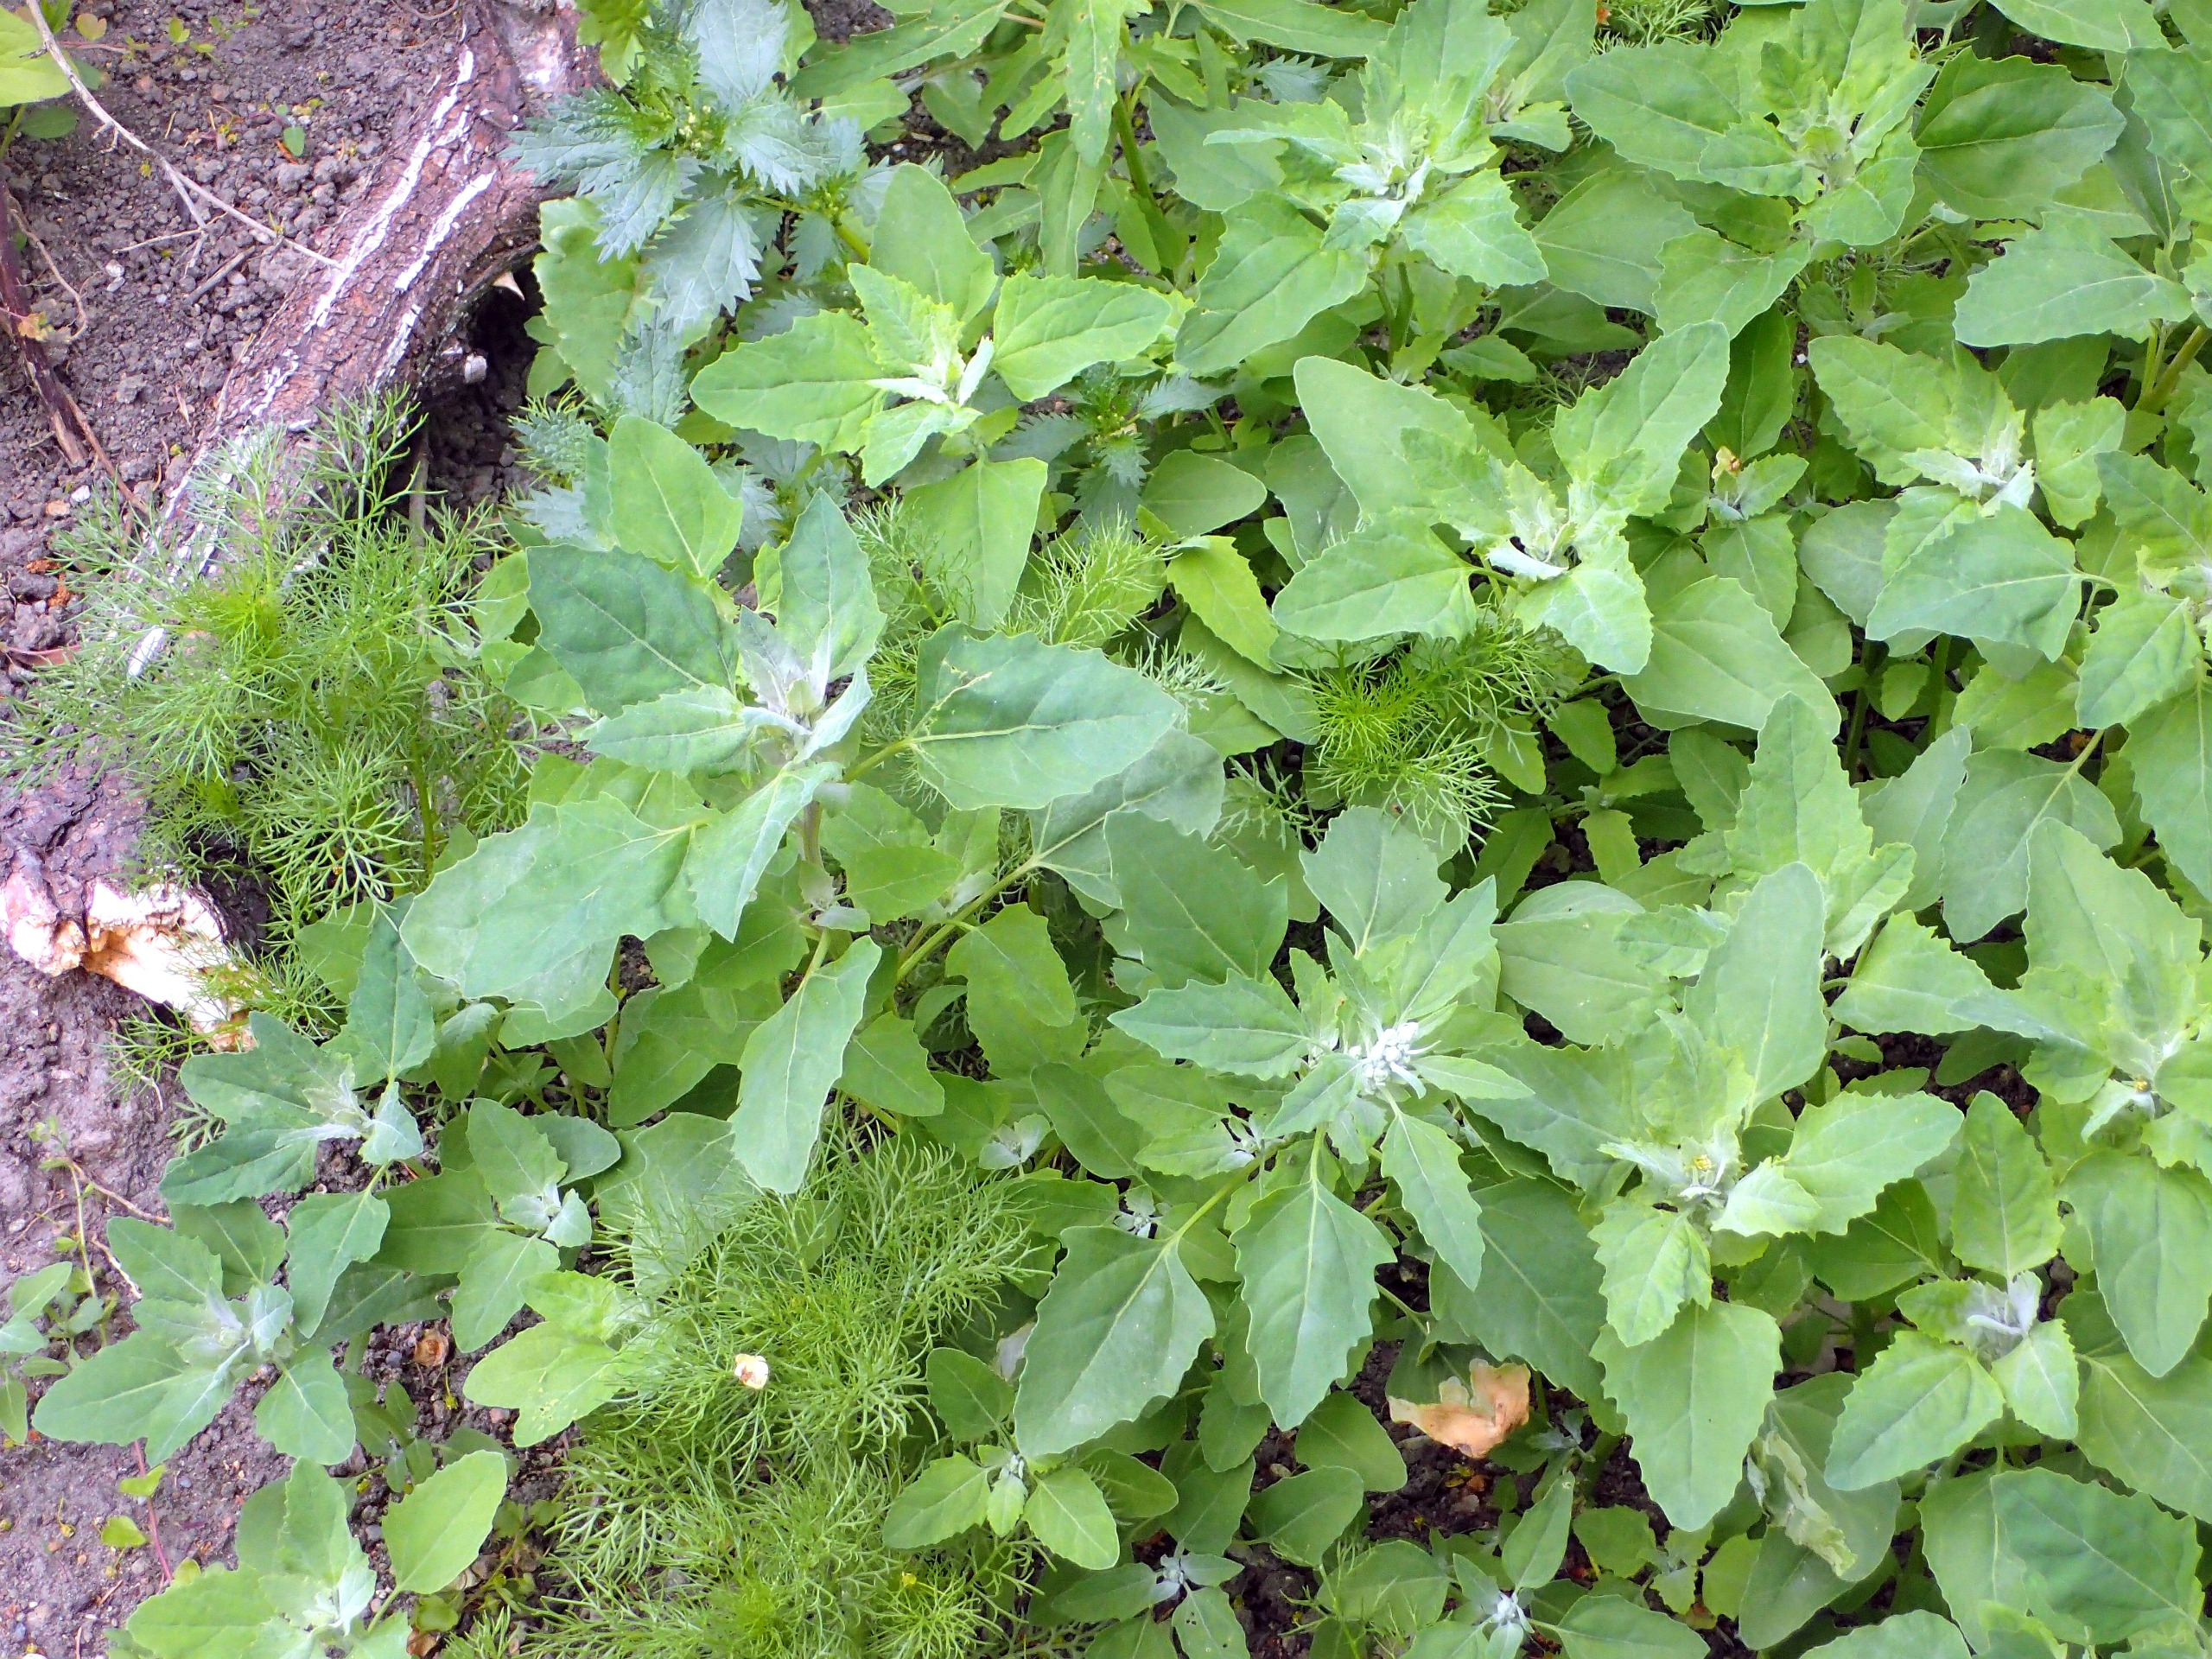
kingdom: Plantae
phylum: Tracheophyta
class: Magnoliopsida
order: Caryophyllales
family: Amaranthaceae
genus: Chenopodium
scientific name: Chenopodium album
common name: Hvidmelet gåsefod
